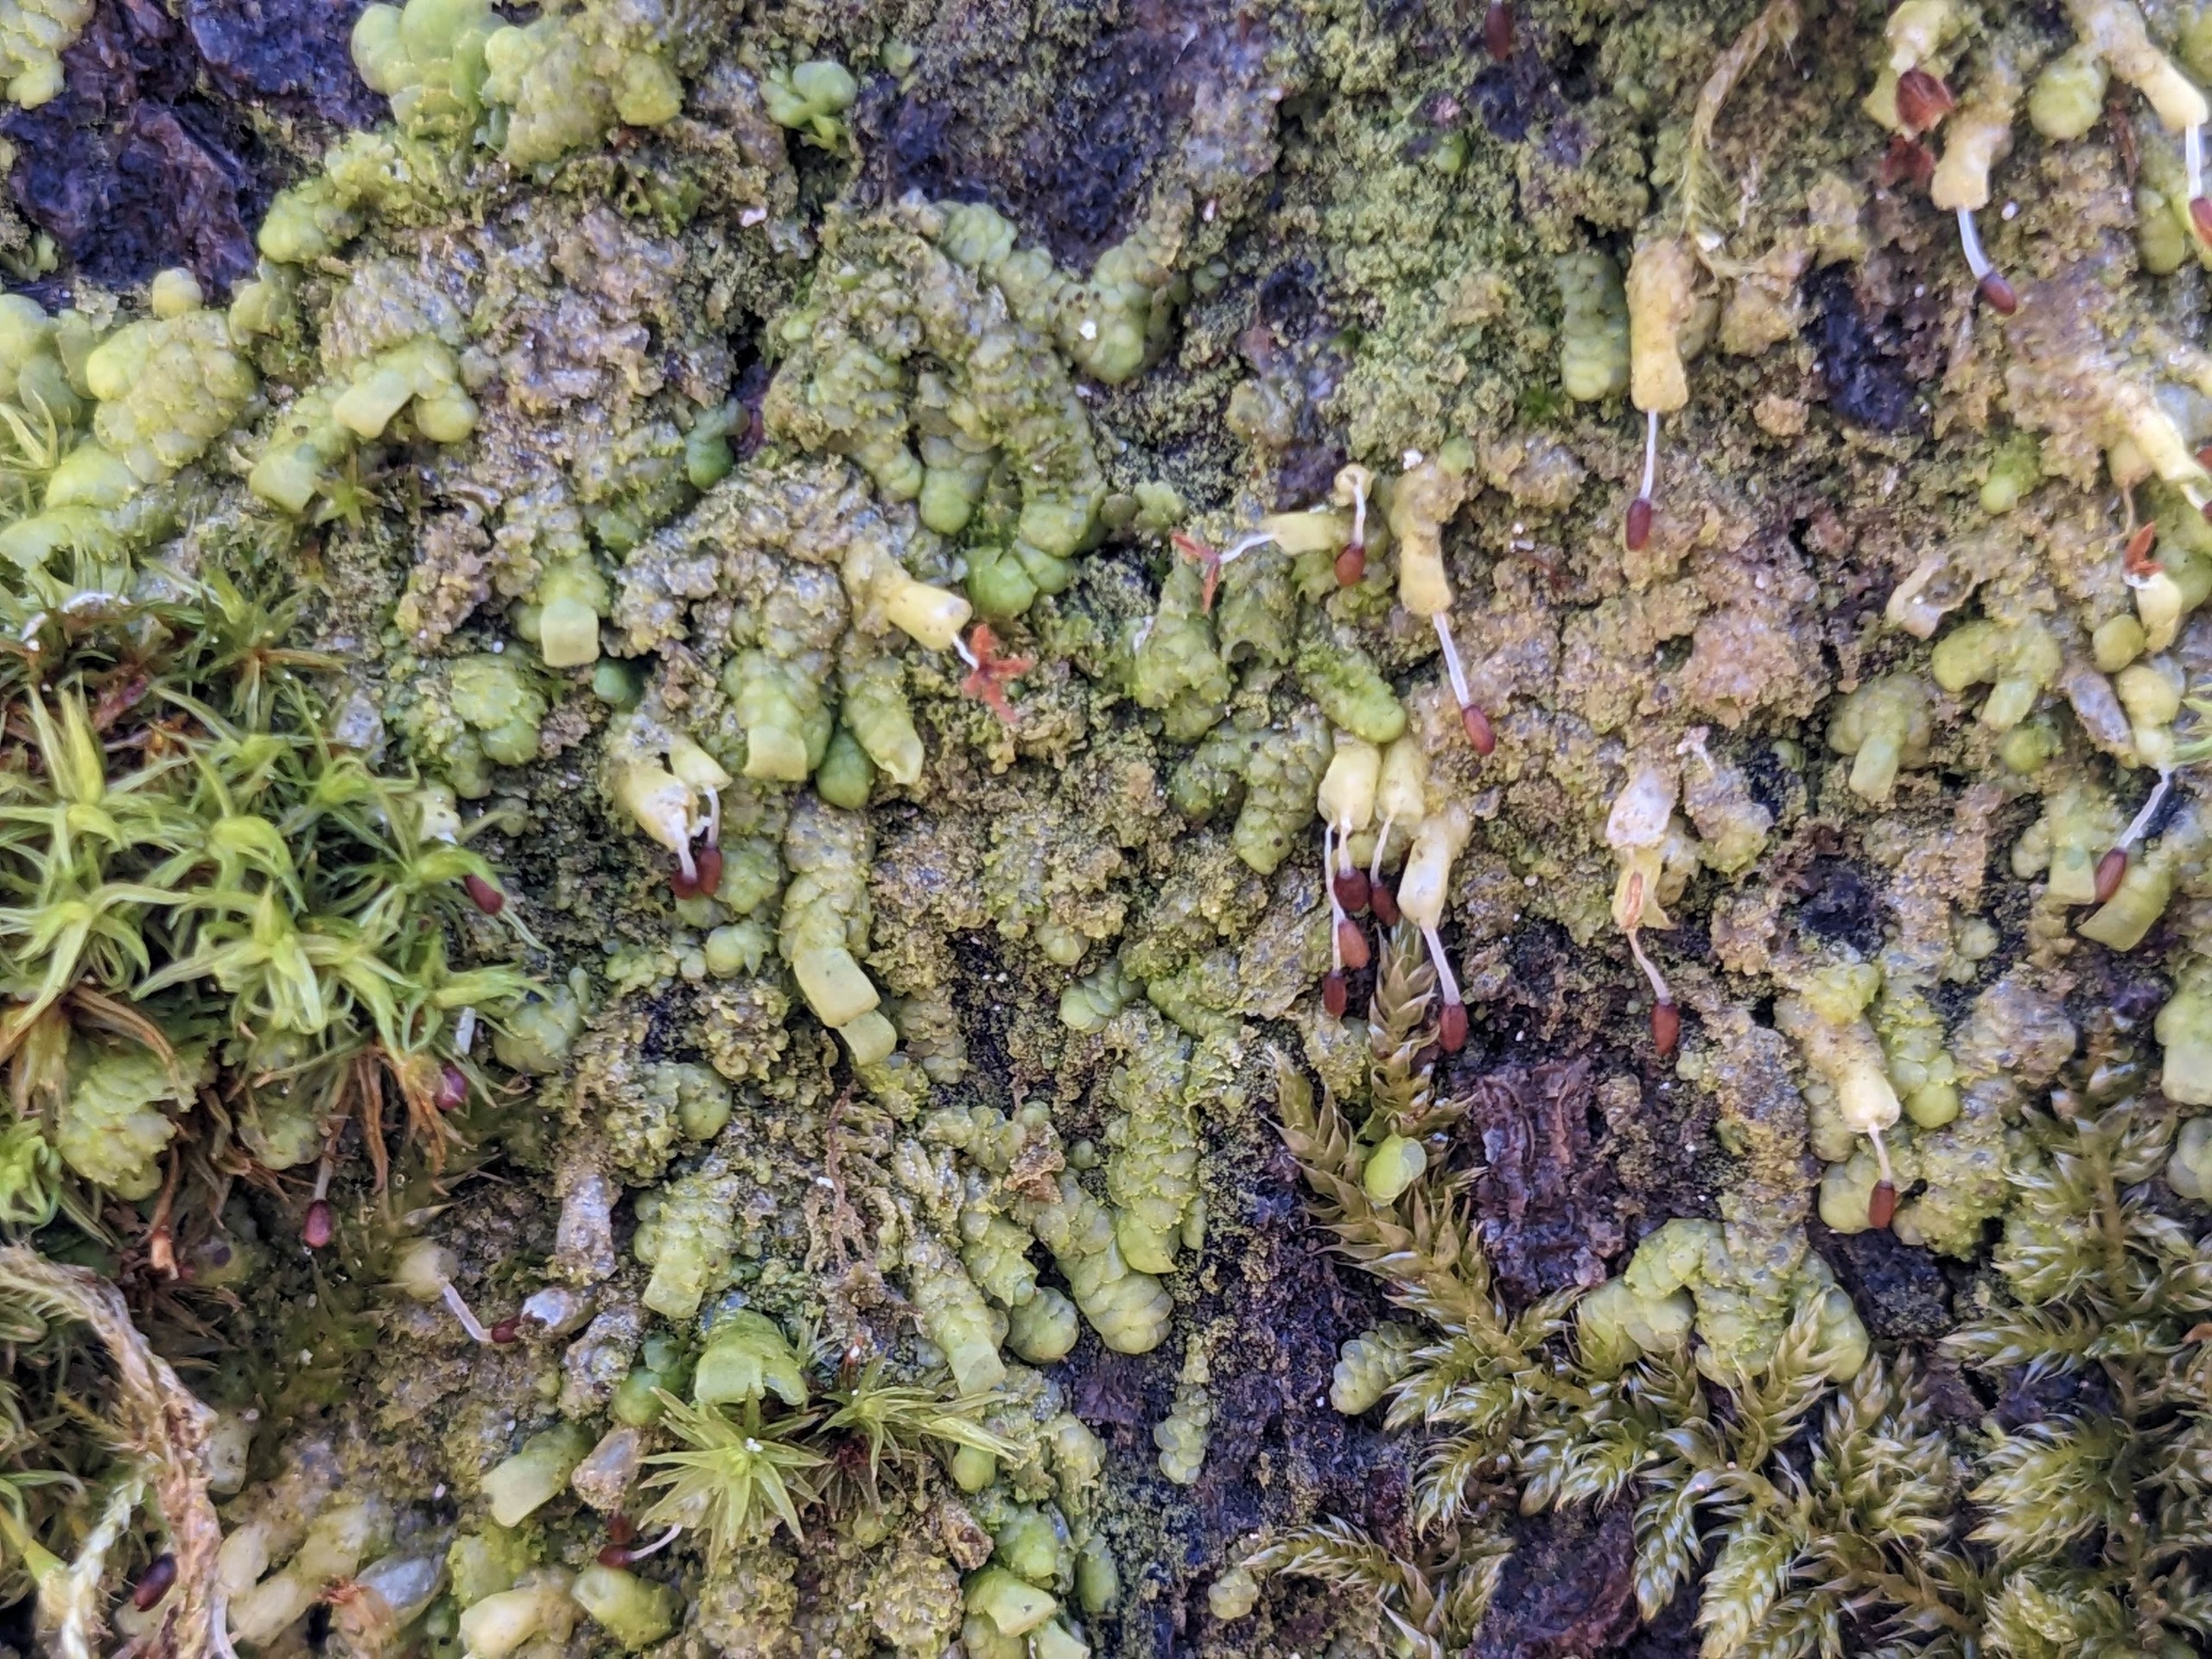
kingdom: Plantae
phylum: Marchantiophyta
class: Jungermanniopsida
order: Porellales
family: Radulaceae
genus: Radula
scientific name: Radula complanata
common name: Almindelig spartelmos
